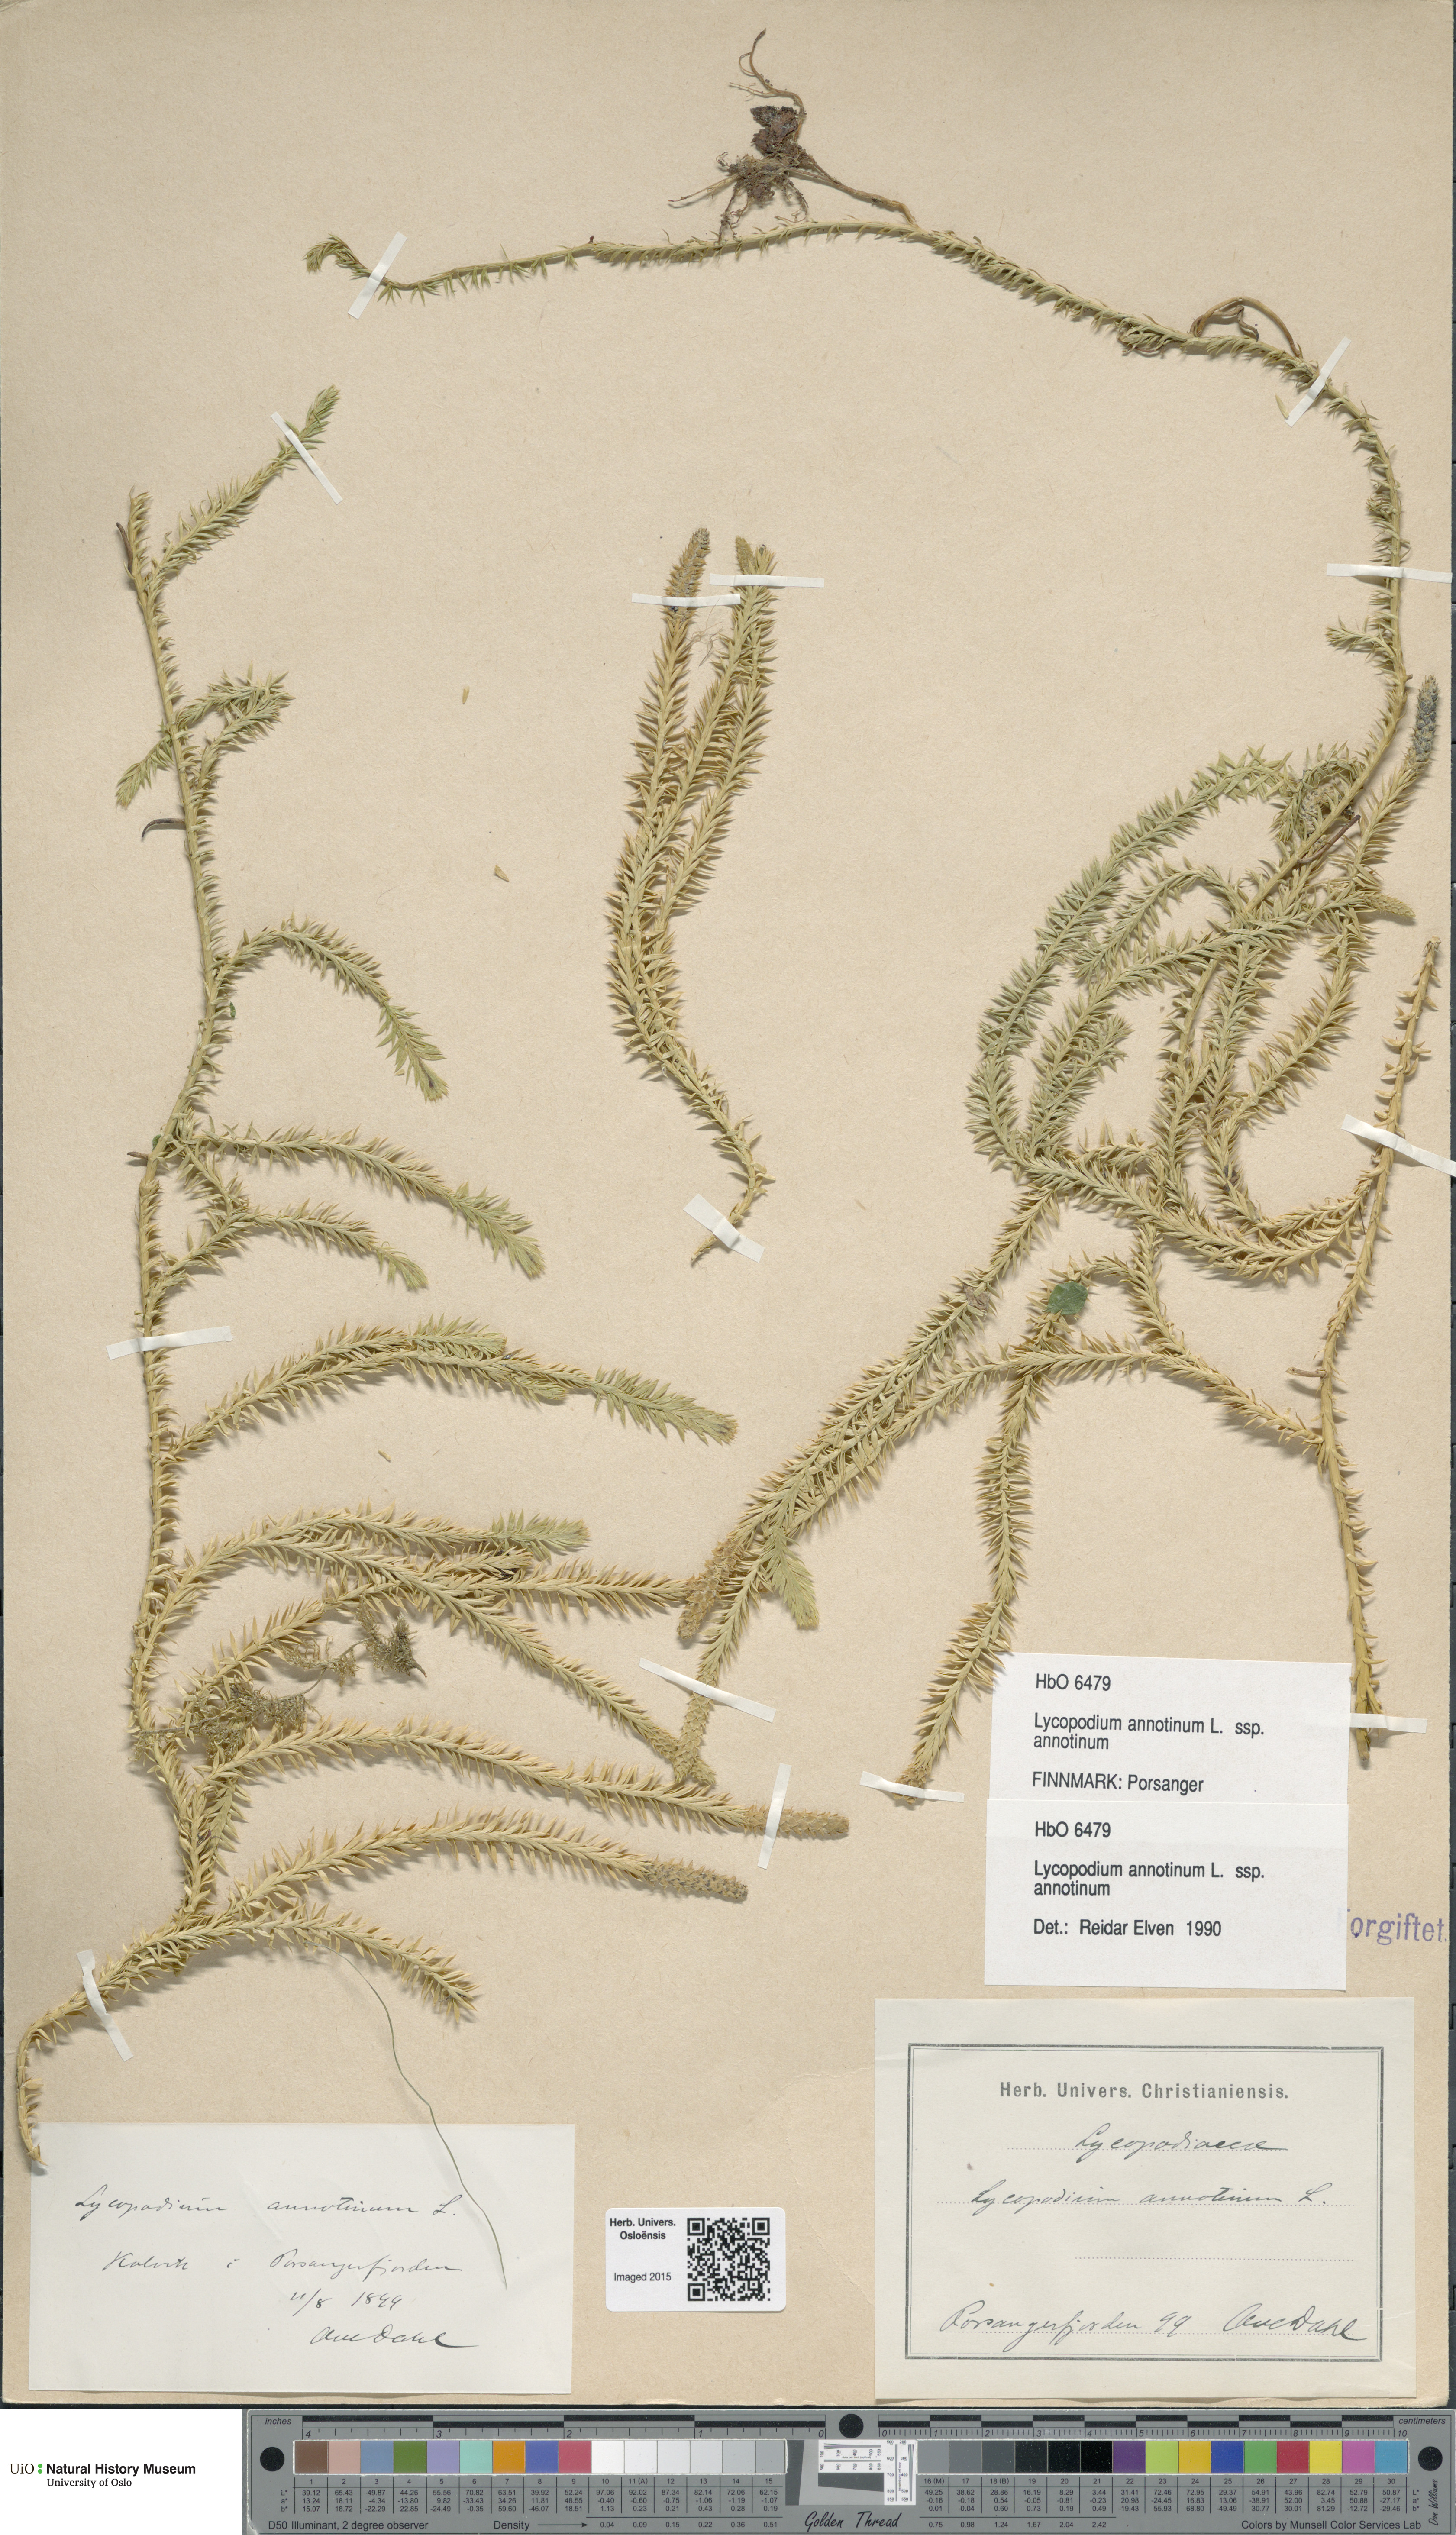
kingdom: Plantae
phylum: Tracheophyta
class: Lycopodiopsida
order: Lycopodiales
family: Lycopodiaceae
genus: Spinulum
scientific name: Spinulum annotinum
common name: Interrupted club-moss
